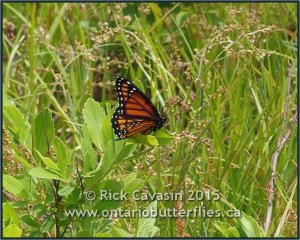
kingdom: Animalia
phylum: Arthropoda
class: Insecta
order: Lepidoptera
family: Nymphalidae
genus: Limenitis
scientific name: Limenitis archippus
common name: Viceroy
